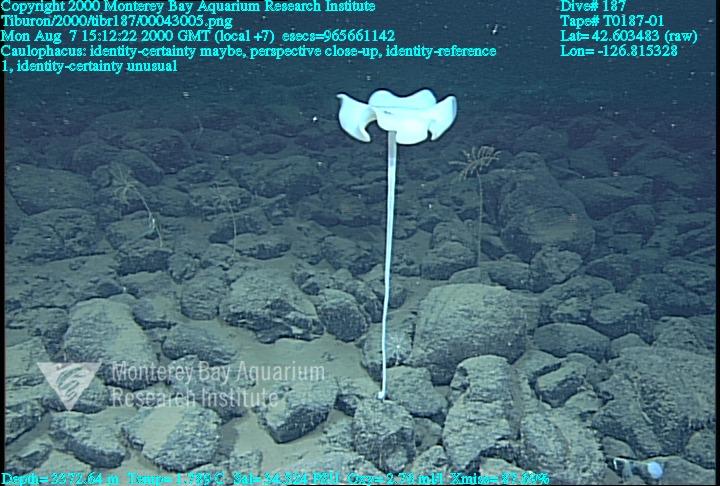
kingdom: Animalia
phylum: Porifera
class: Hexactinellida
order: Lyssacinosida
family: Rossellidae
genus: Caulophacus
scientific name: Caulophacus
